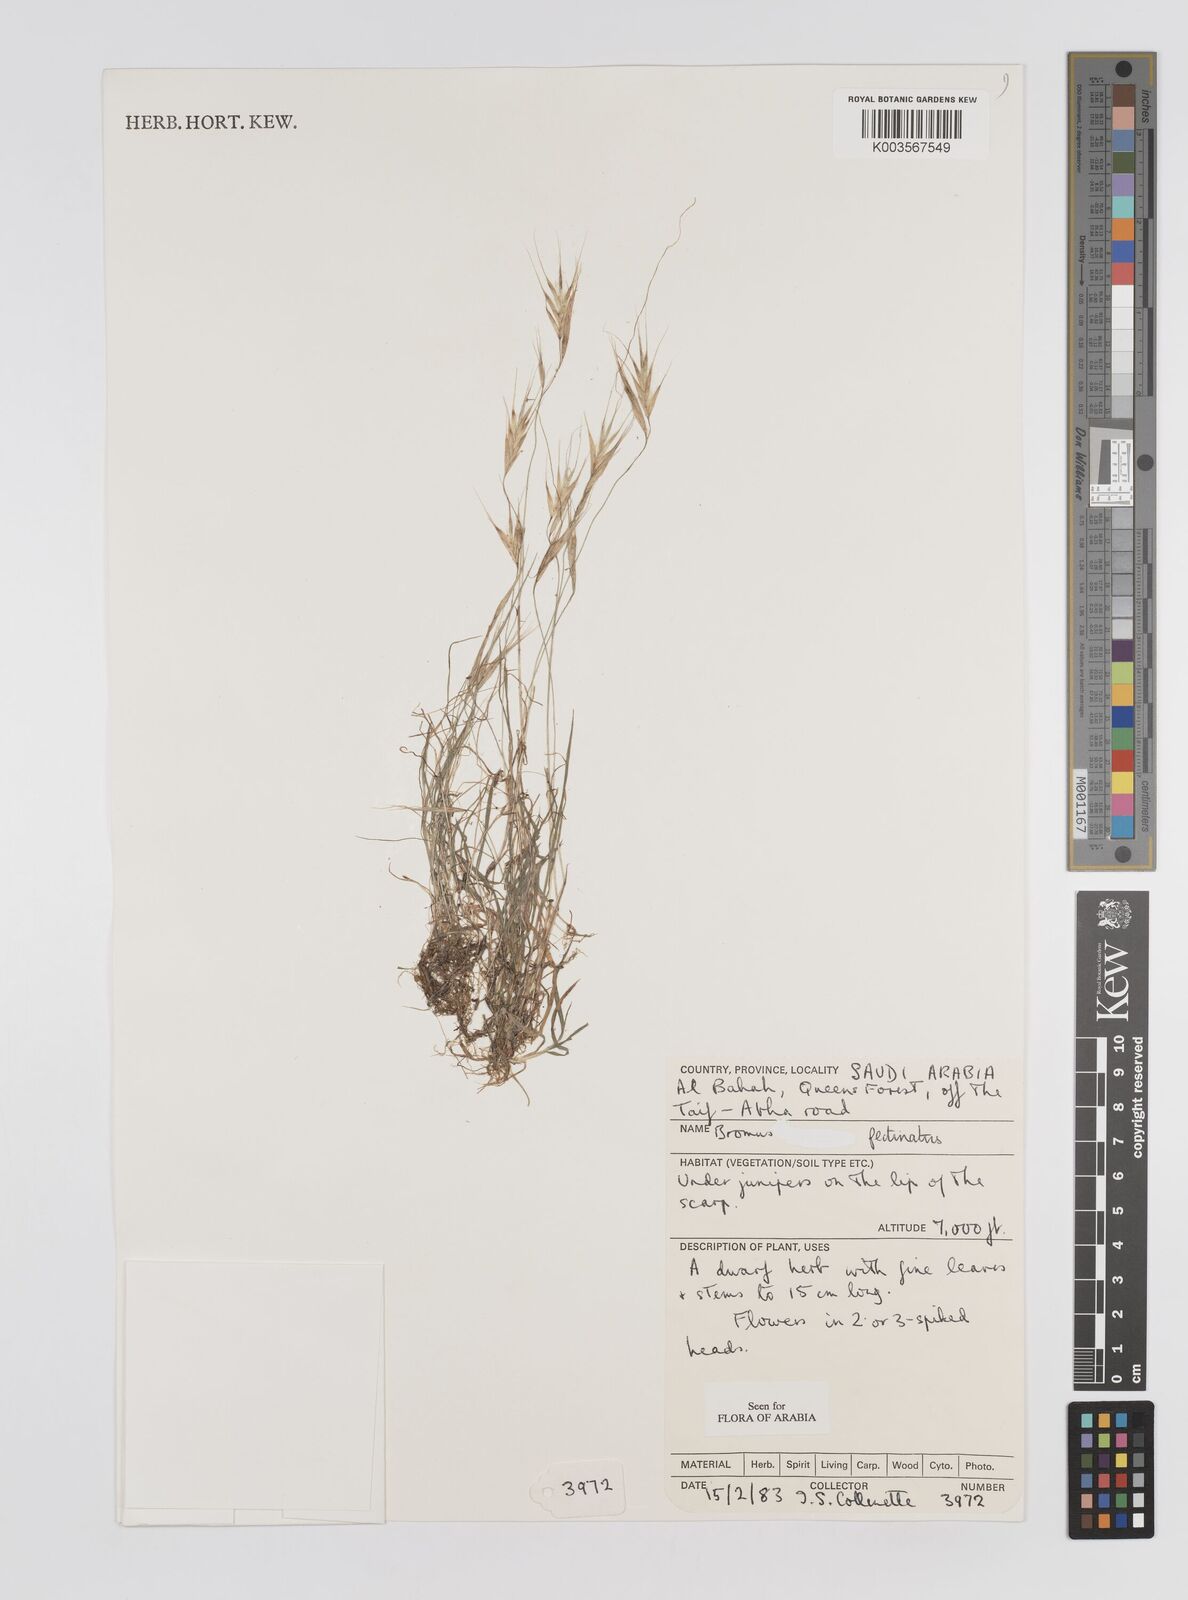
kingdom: Plantae
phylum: Tracheophyta
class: Liliopsida
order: Poales
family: Poaceae
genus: Bromus
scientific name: Bromus pectinatus
